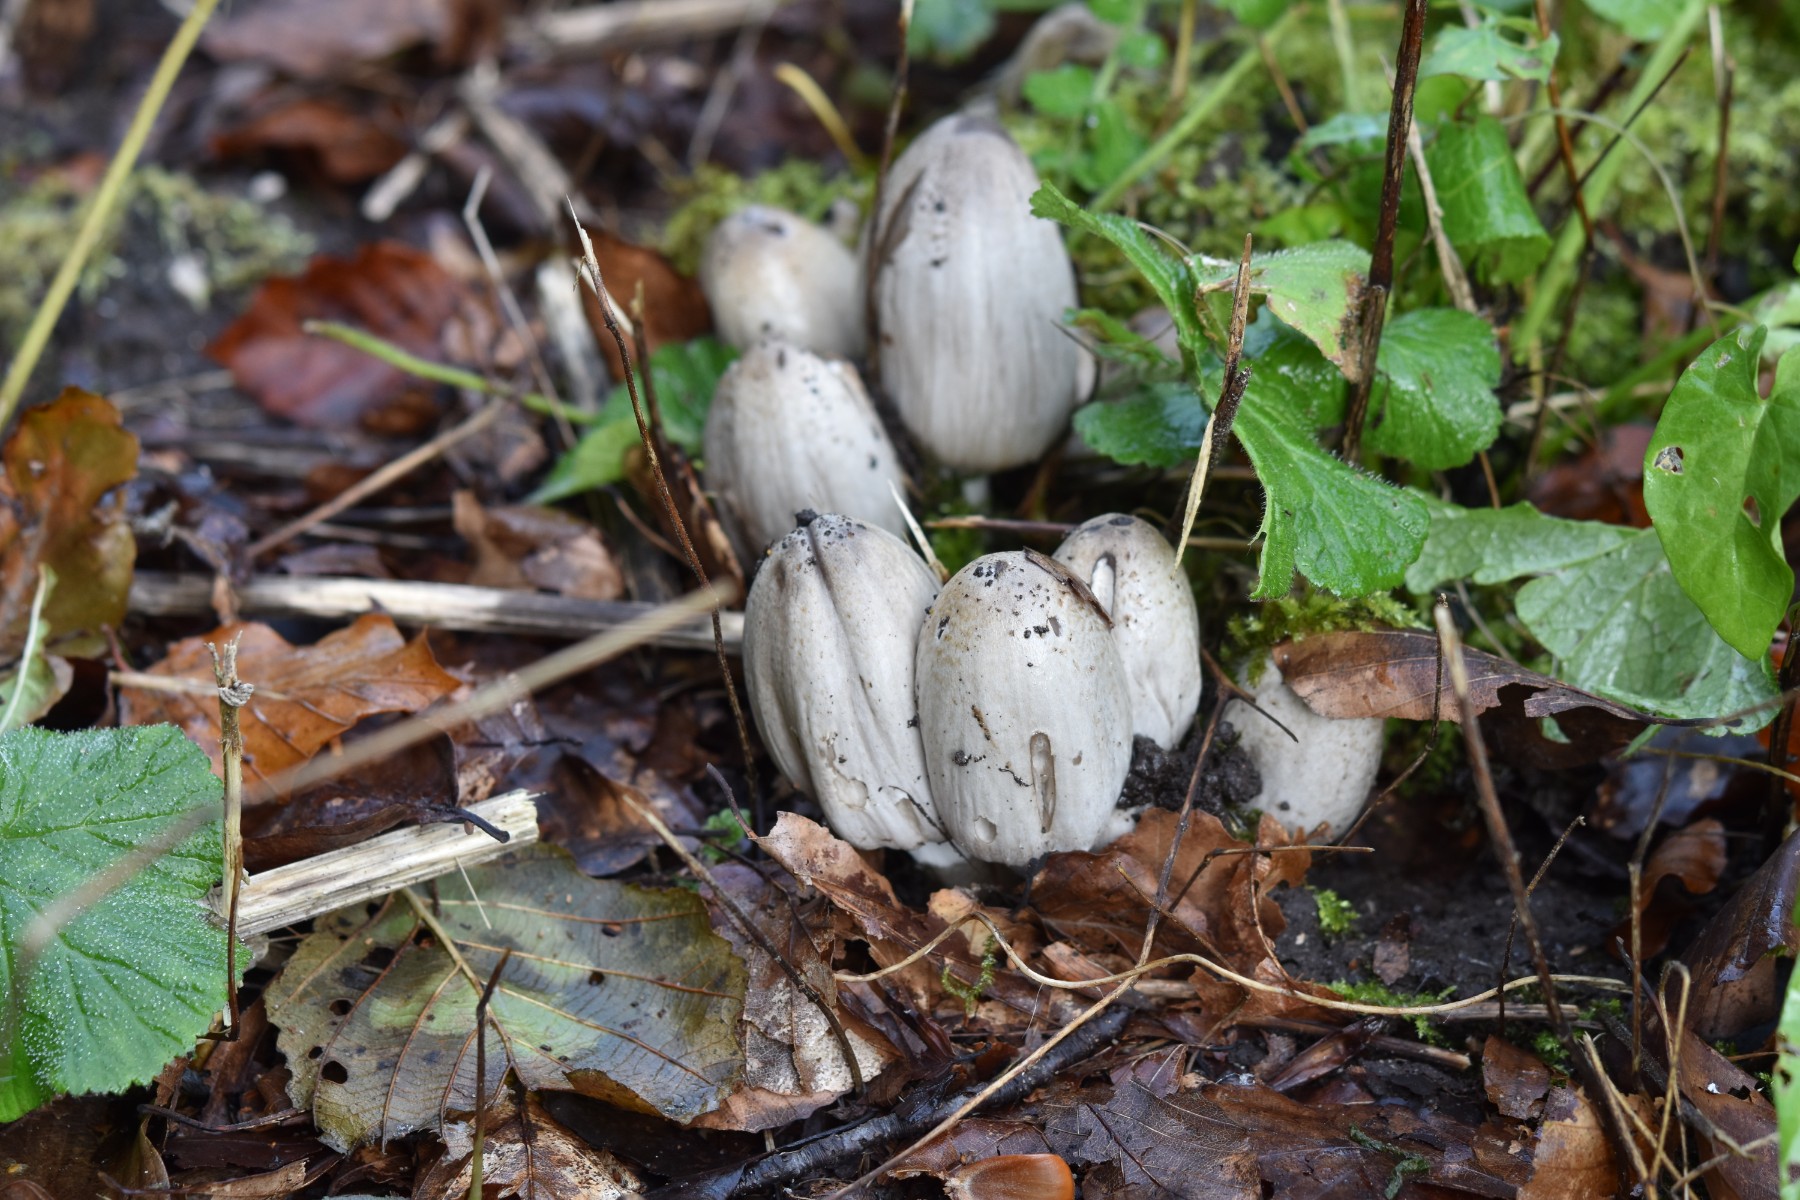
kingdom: Fungi
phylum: Basidiomycota
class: Agaricomycetes
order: Agaricales
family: Psathyrellaceae
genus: Coprinopsis
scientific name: Coprinopsis atramentaria
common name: almindelig blækhat
